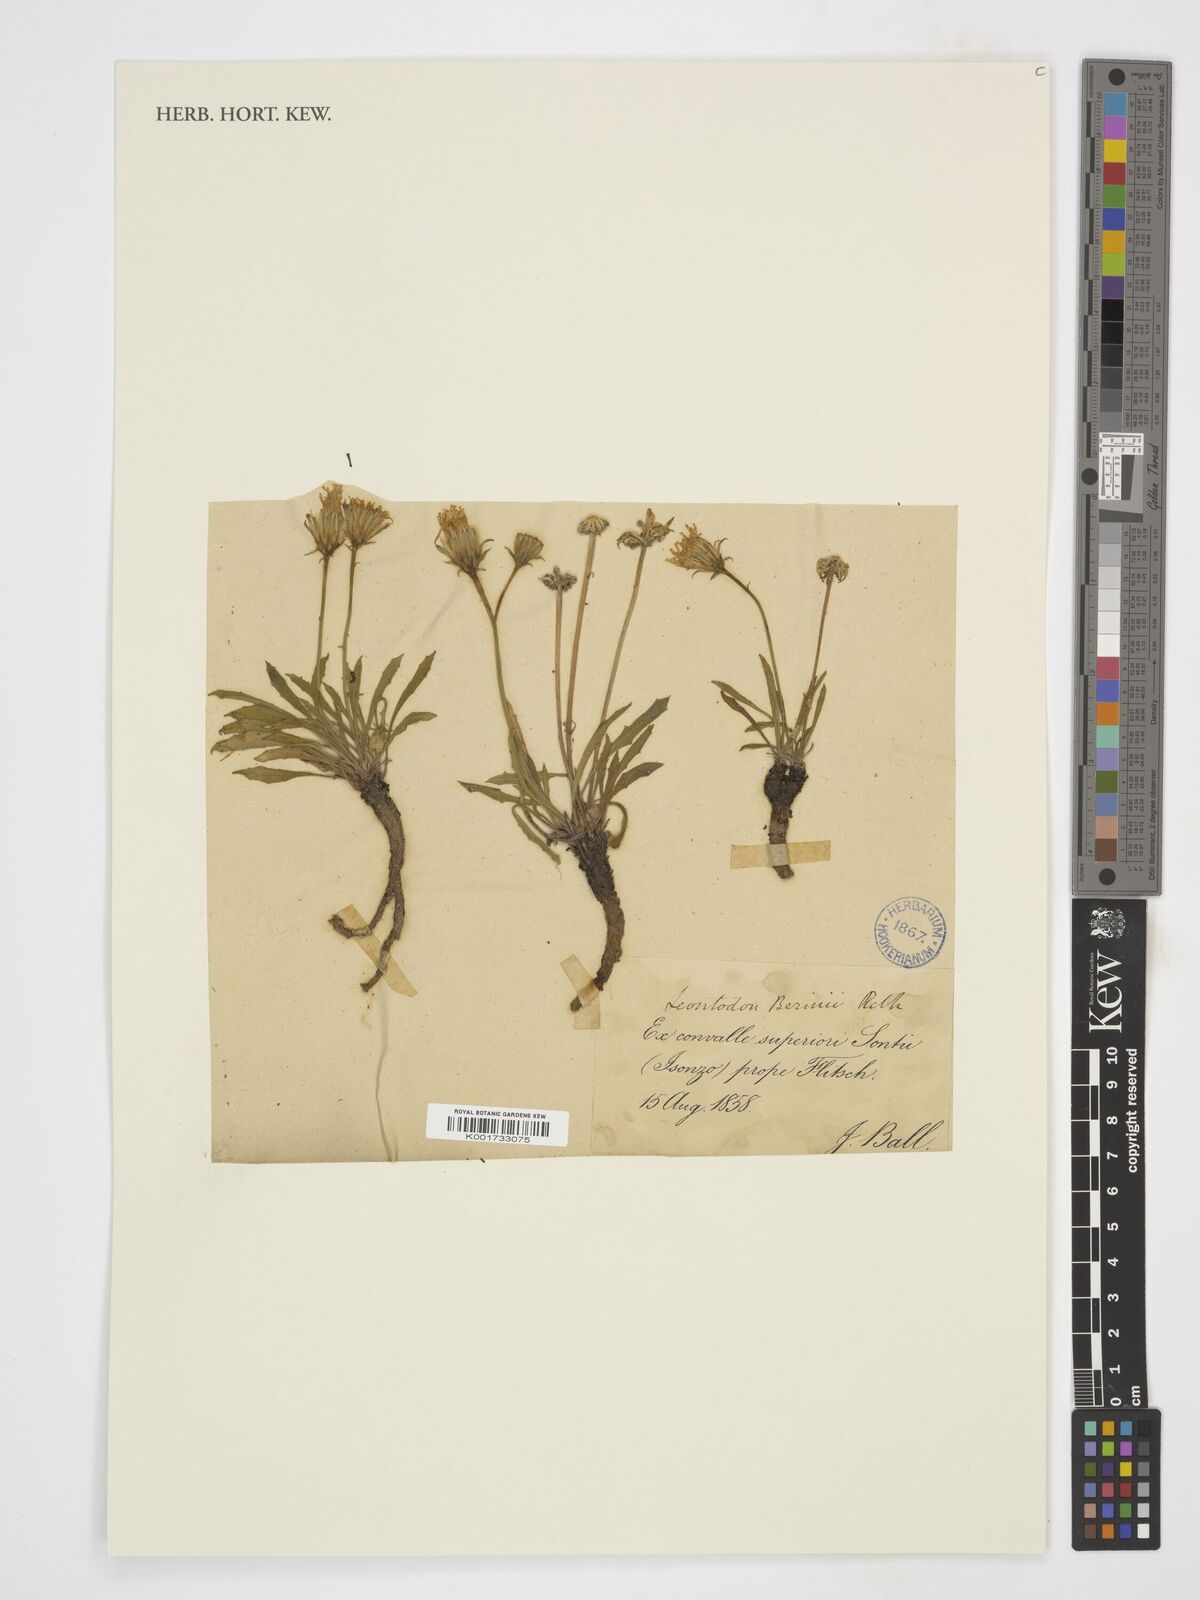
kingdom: Plantae
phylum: Tracheophyta
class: Magnoliopsida
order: Asterales
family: Asteraceae
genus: Leontodon
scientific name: Leontodon berinii
